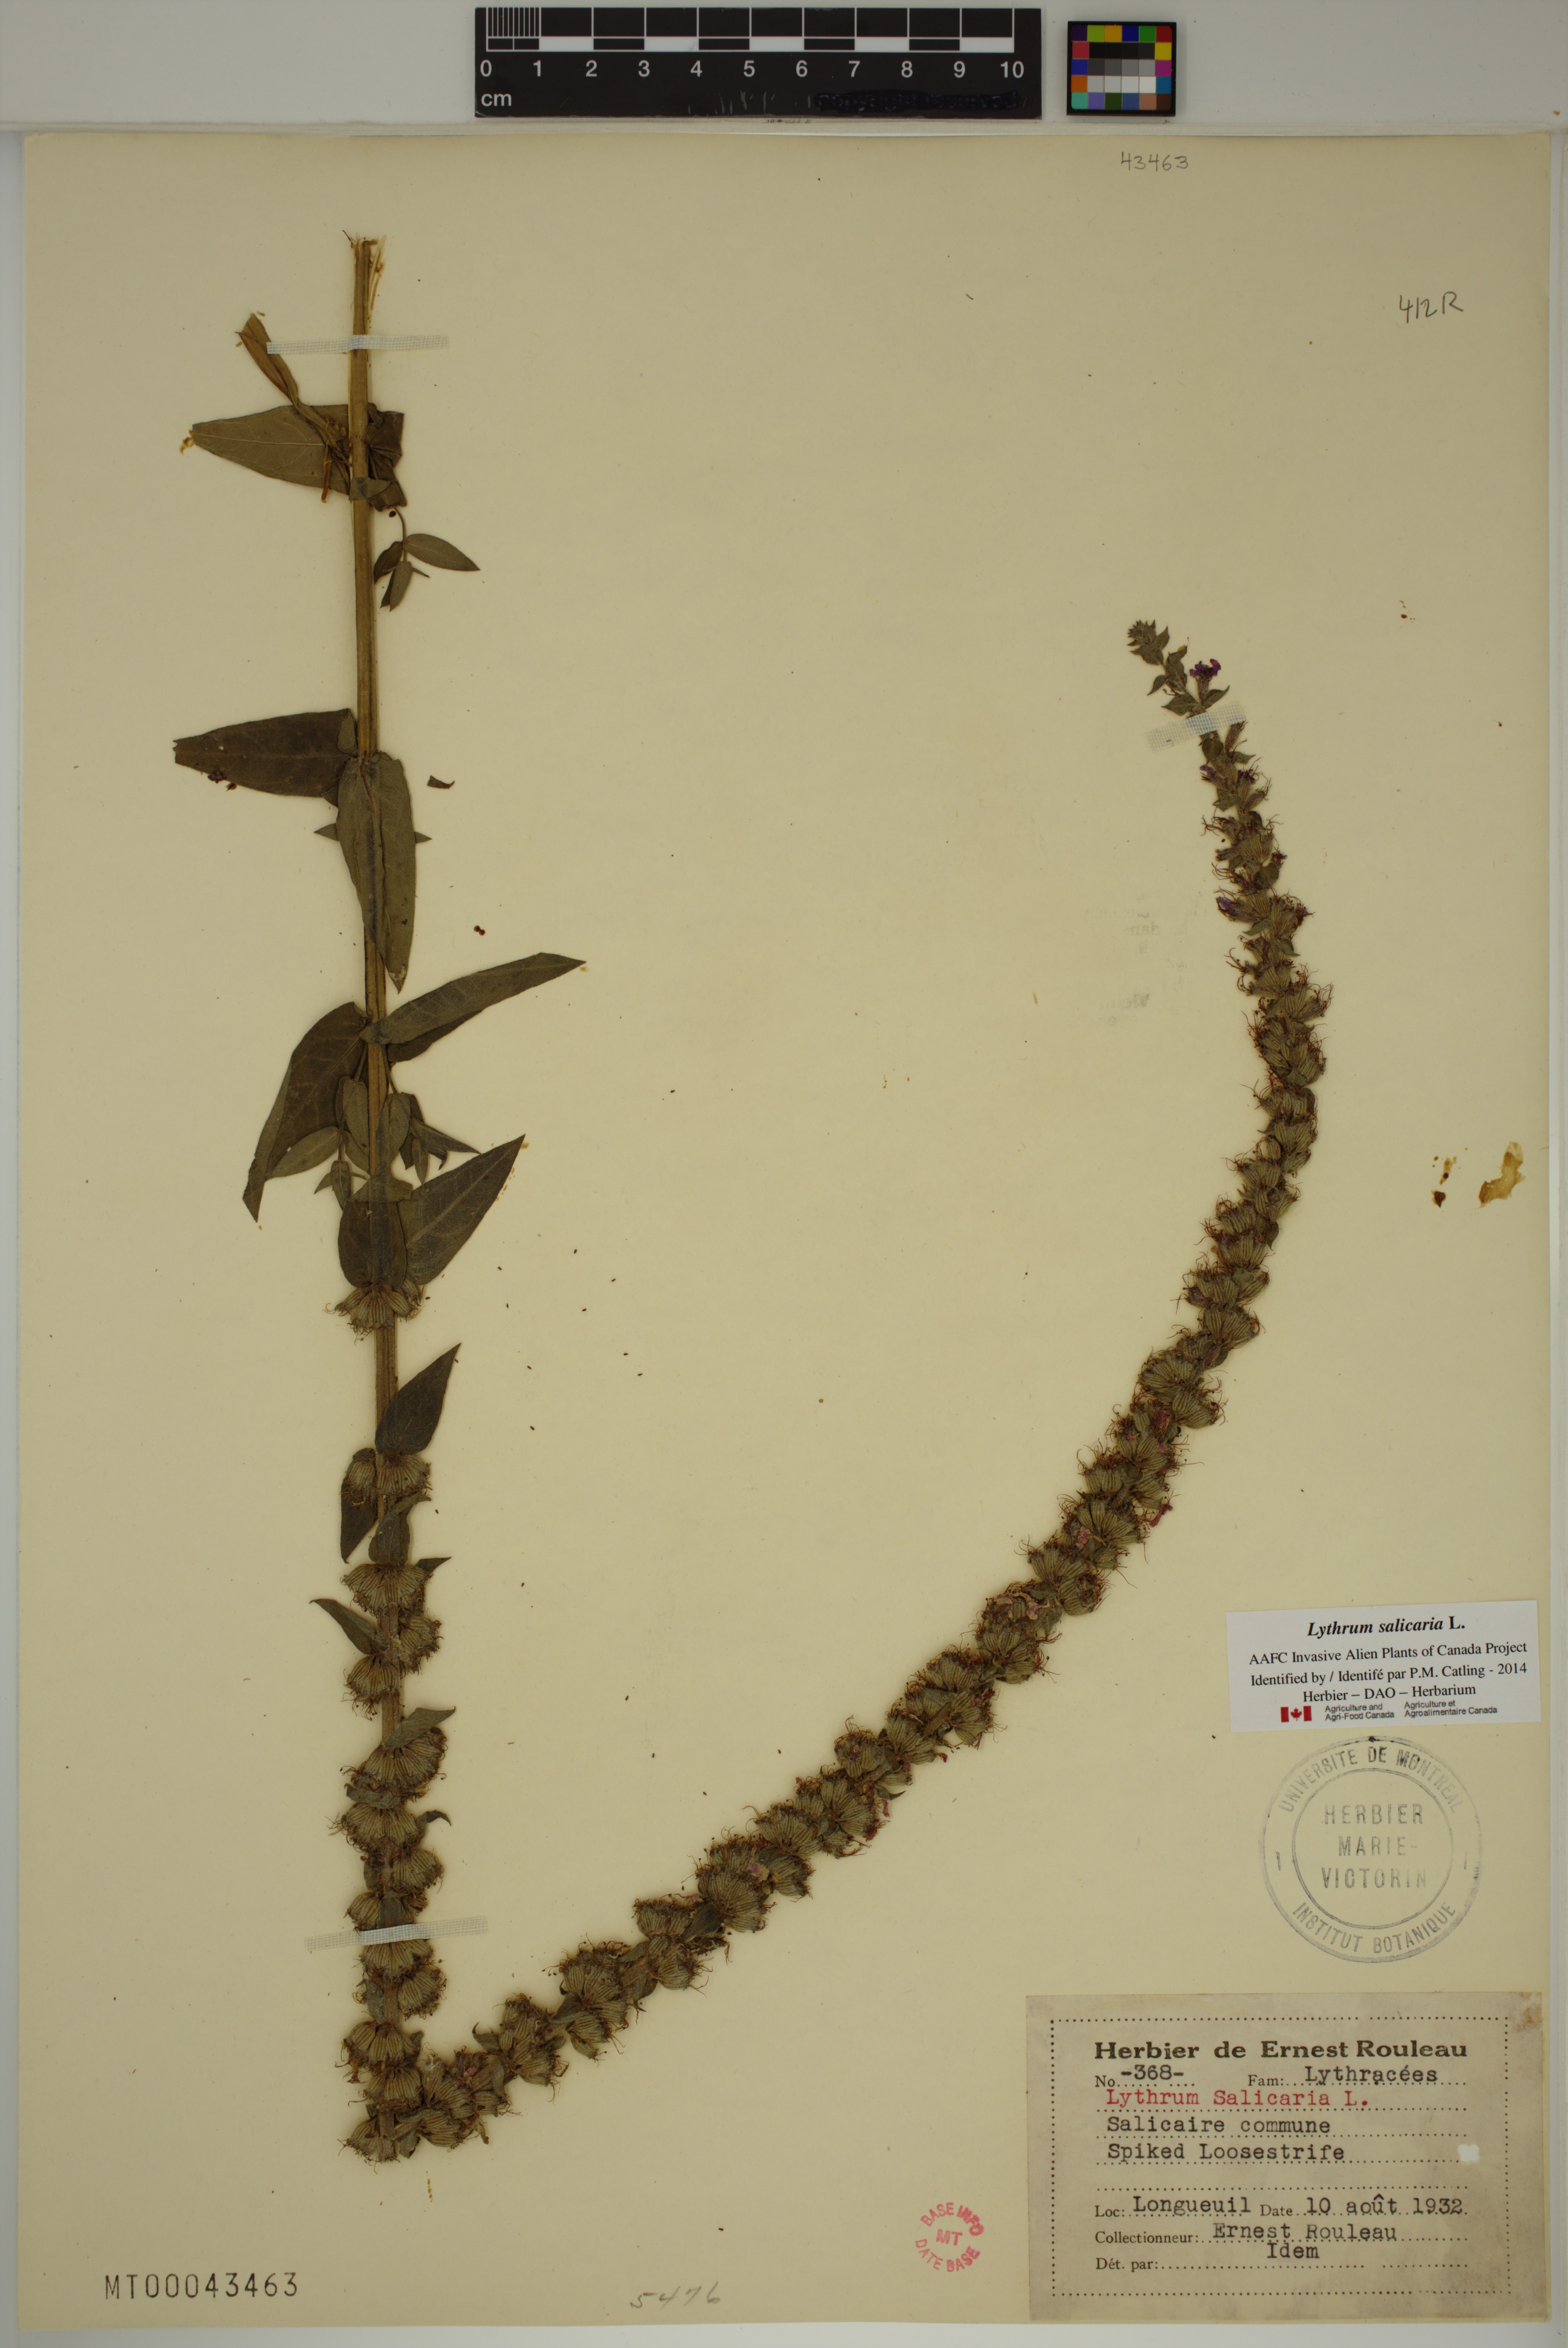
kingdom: Plantae
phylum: Tracheophyta
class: Magnoliopsida
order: Myrtales
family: Lythraceae
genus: Lythrum
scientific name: Lythrum salicaria
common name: Purple loosestrife
